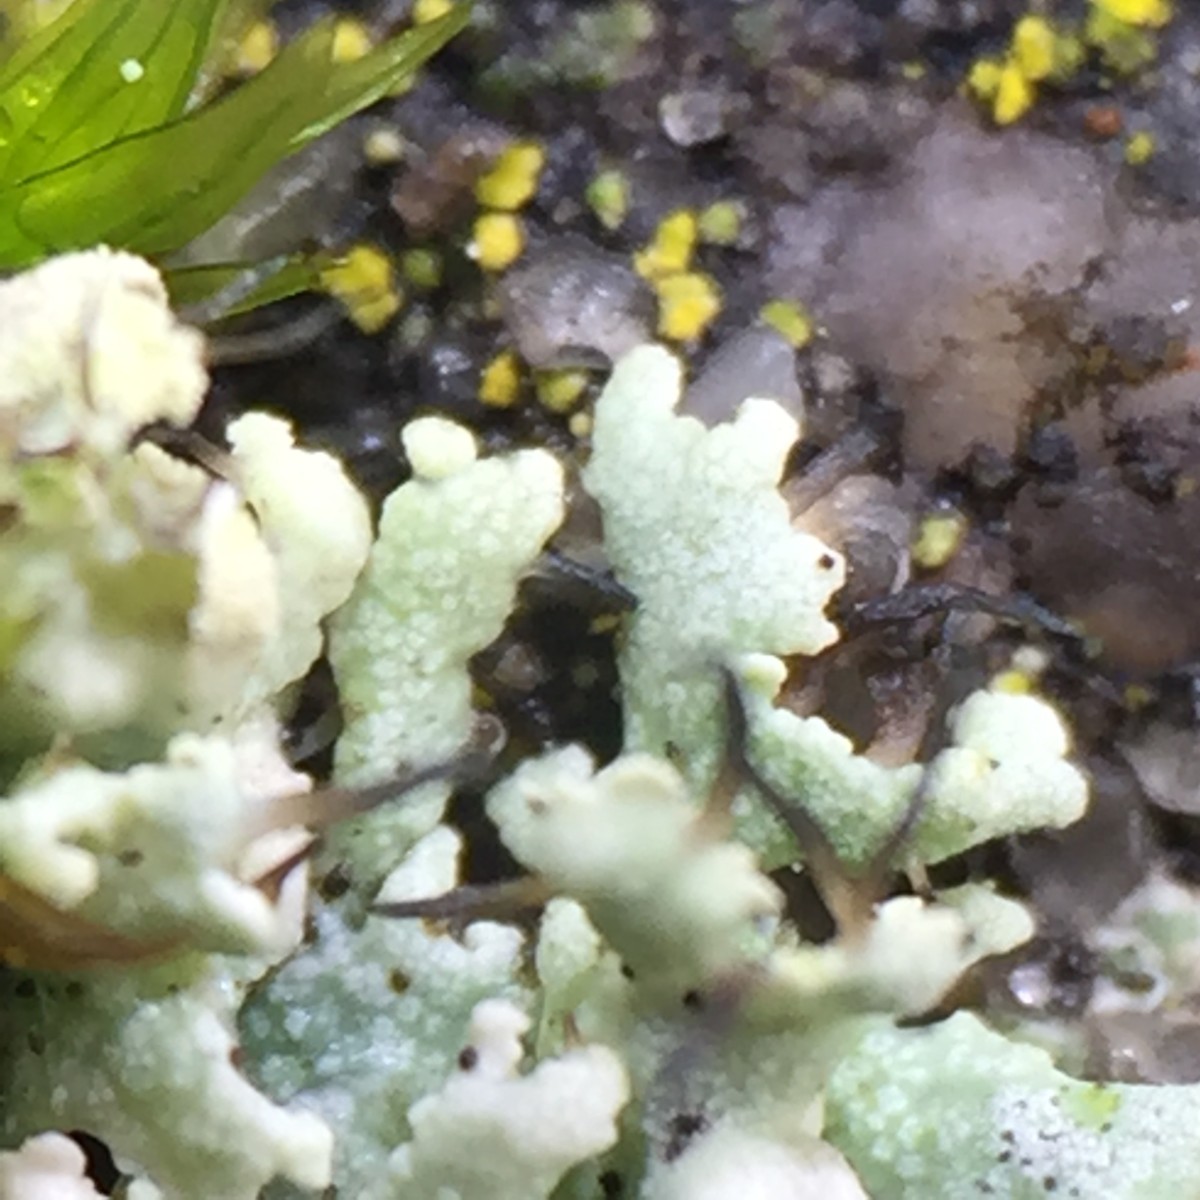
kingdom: Fungi
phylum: Ascomycota
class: Lecanoromycetes
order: Caliciales
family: Physciaceae
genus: Physcia
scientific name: Physcia tenella
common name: spæd rosetlav
